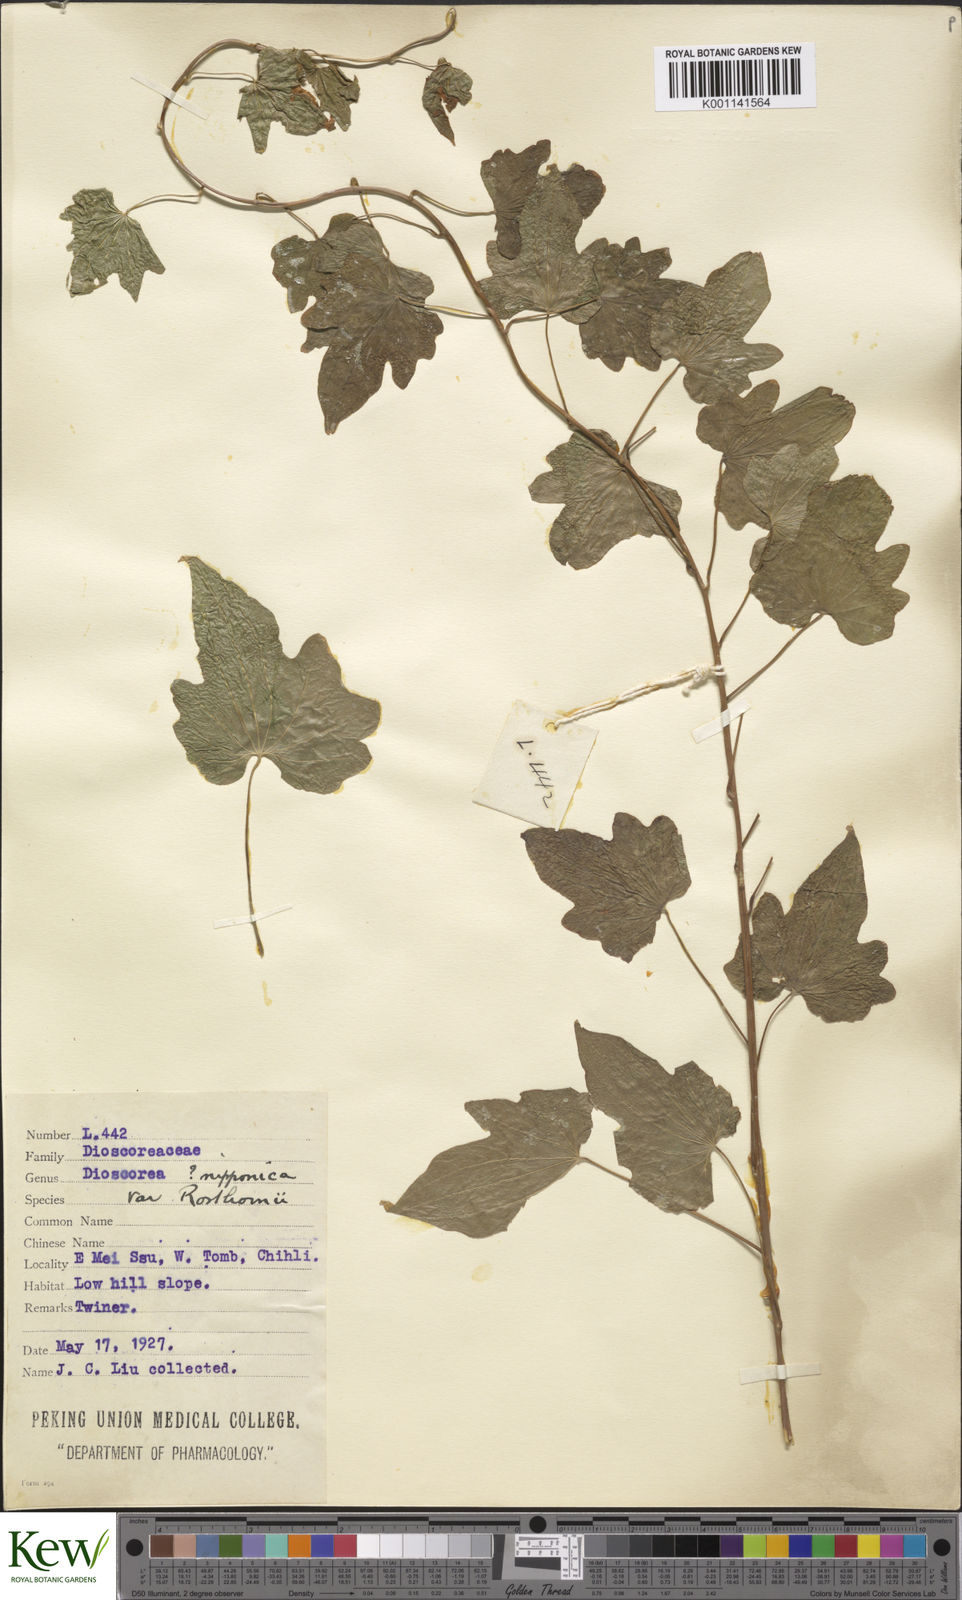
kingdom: Plantae
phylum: Tracheophyta
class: Liliopsida
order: Dioscoreales
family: Dioscoreaceae
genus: Dioscorea
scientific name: Dioscorea nipponica
